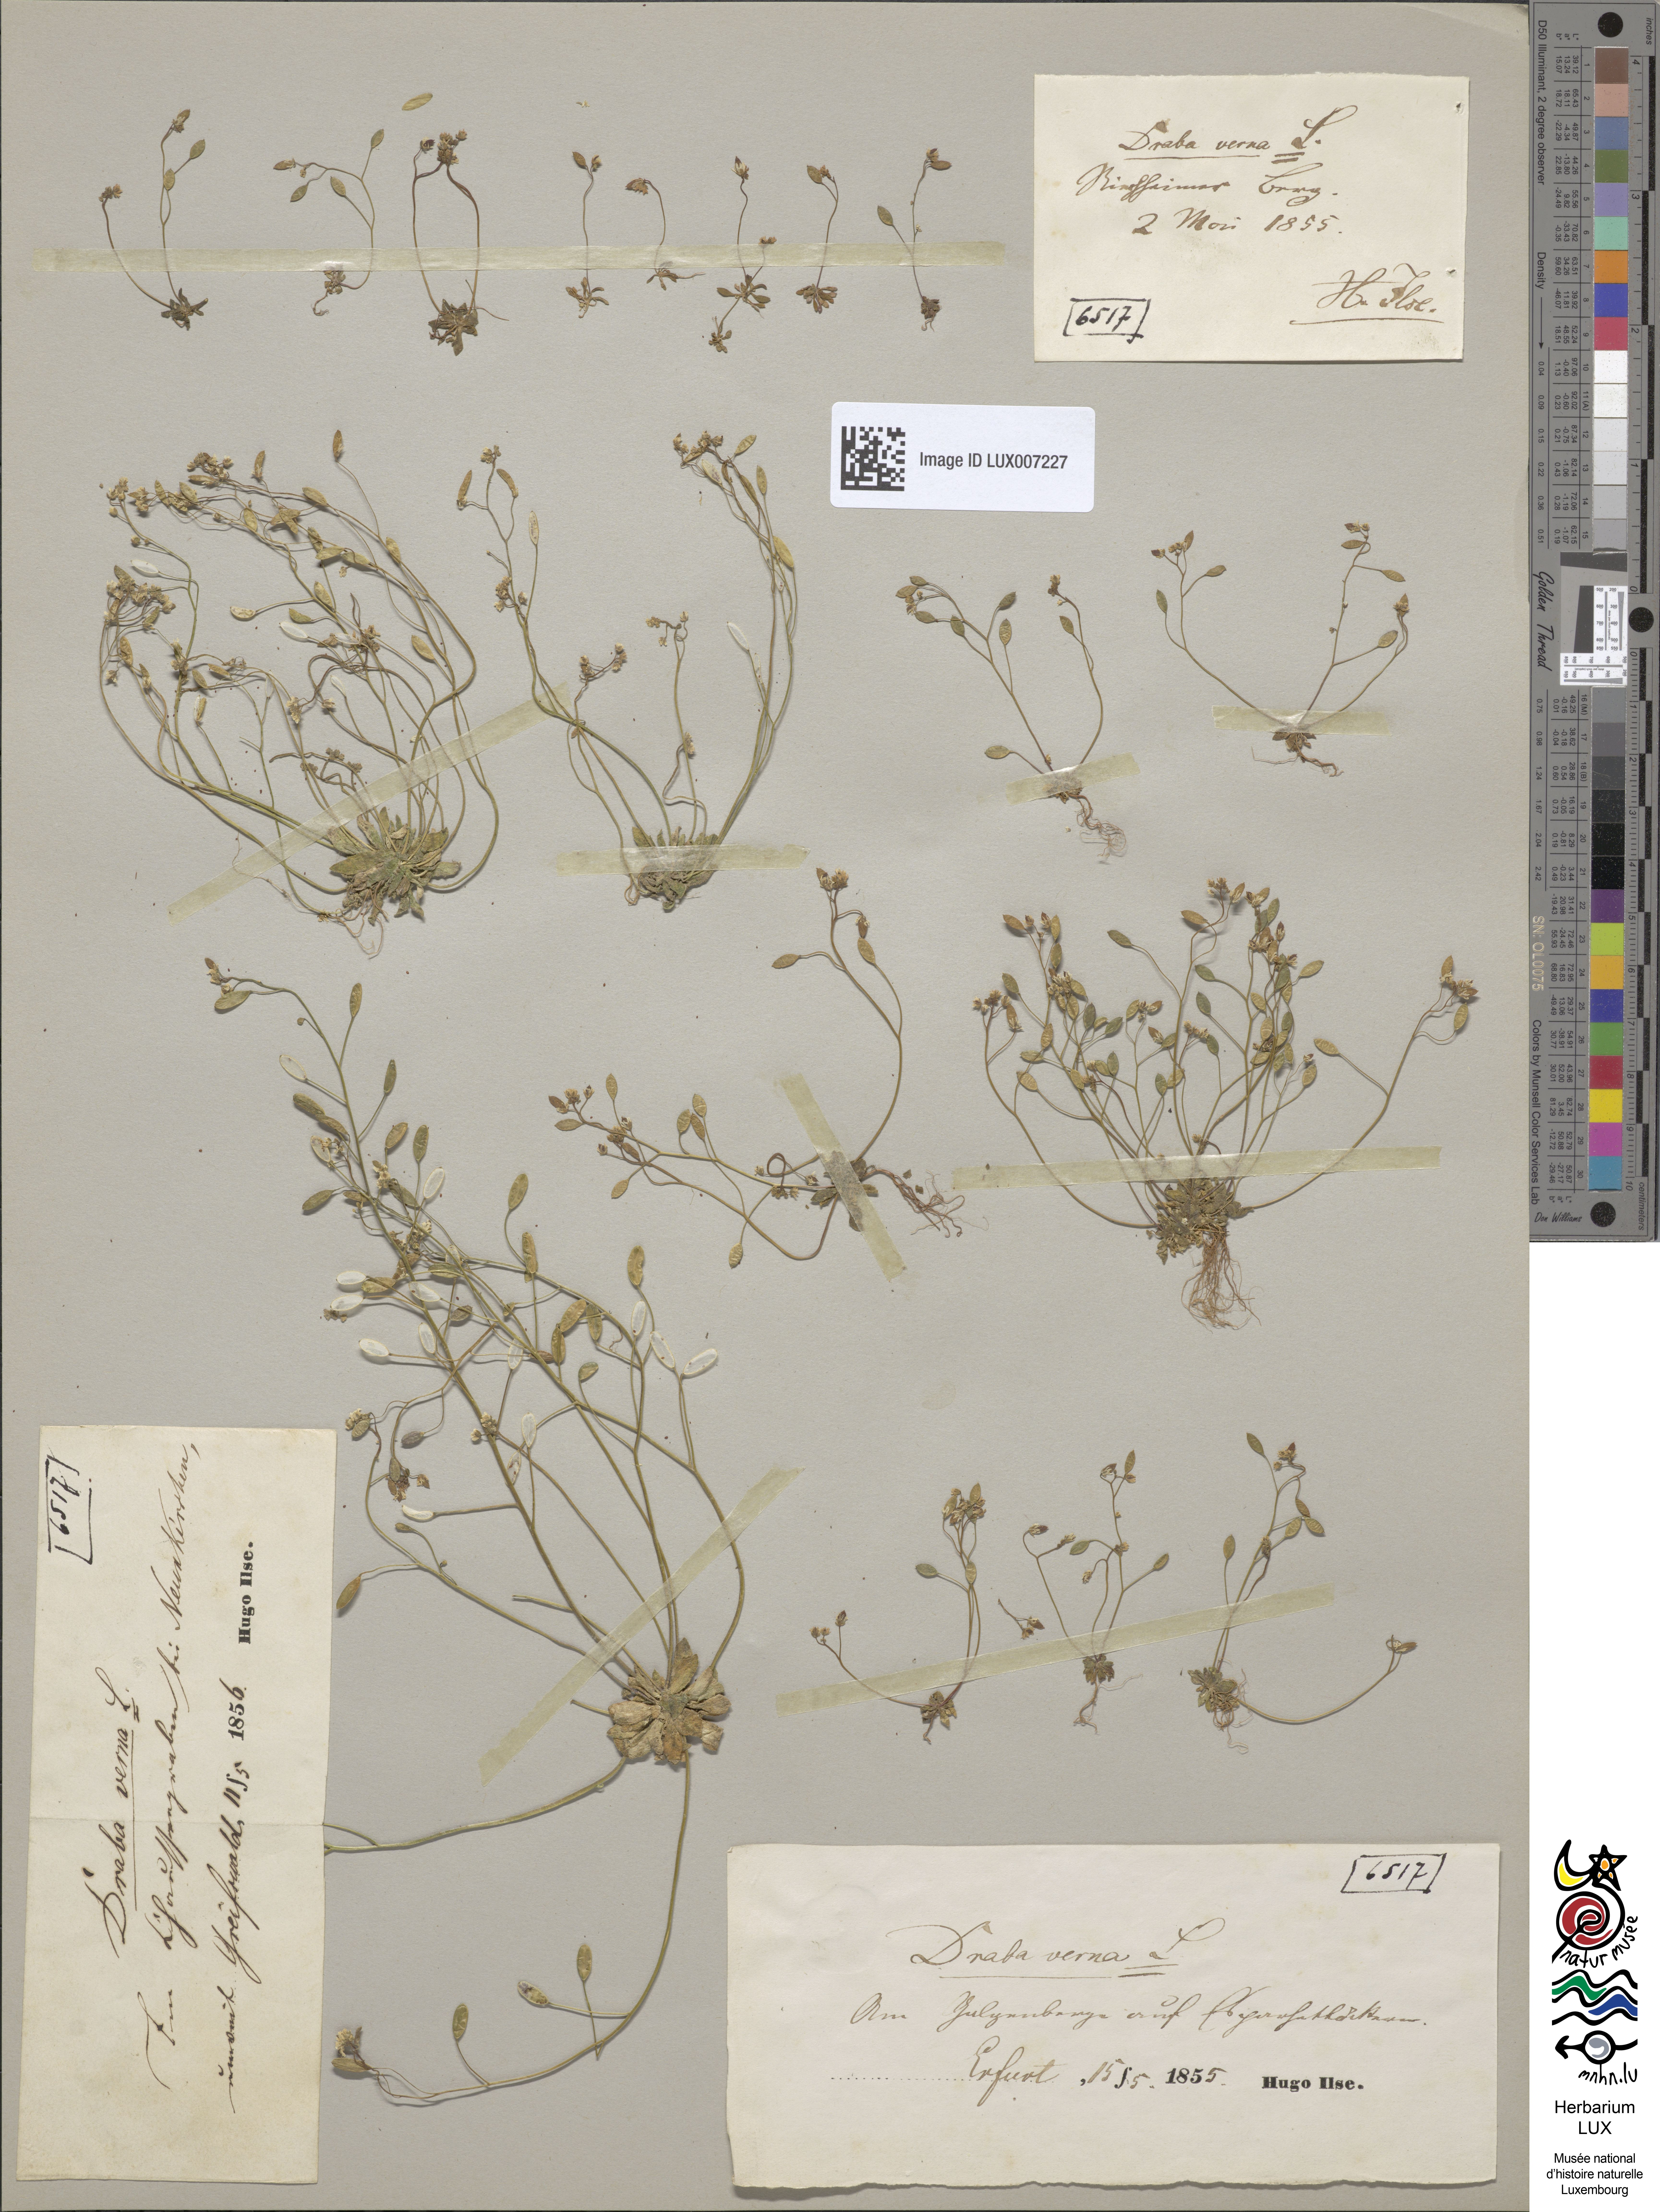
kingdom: Plantae
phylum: Tracheophyta
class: Magnoliopsida
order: Brassicales
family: Brassicaceae
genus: Draba
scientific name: Draba verna
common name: Spring draba
